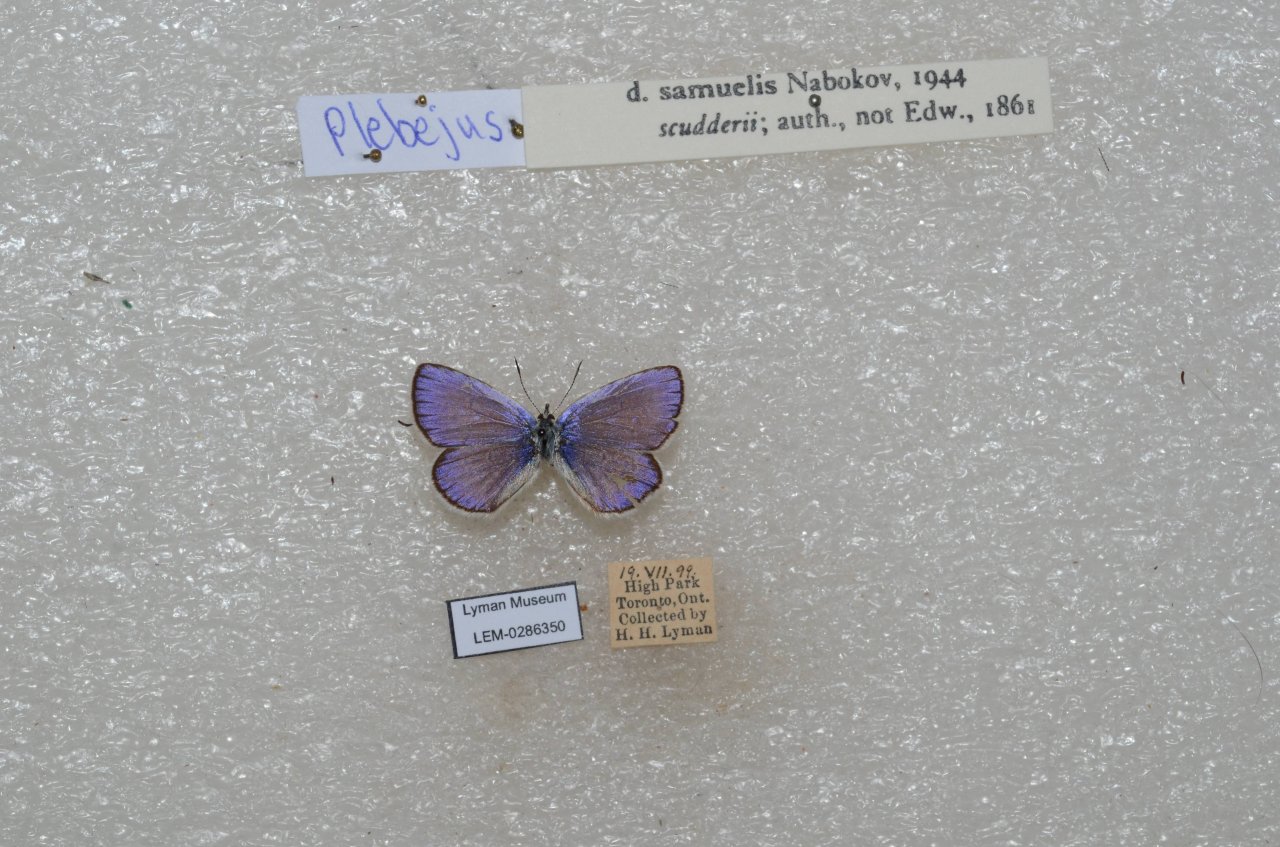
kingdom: Animalia
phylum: Arthropoda
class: Insecta
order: Lepidoptera
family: Lycaenidae
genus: Plebejus
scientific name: Plebejus samuelis
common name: Karner Blue
